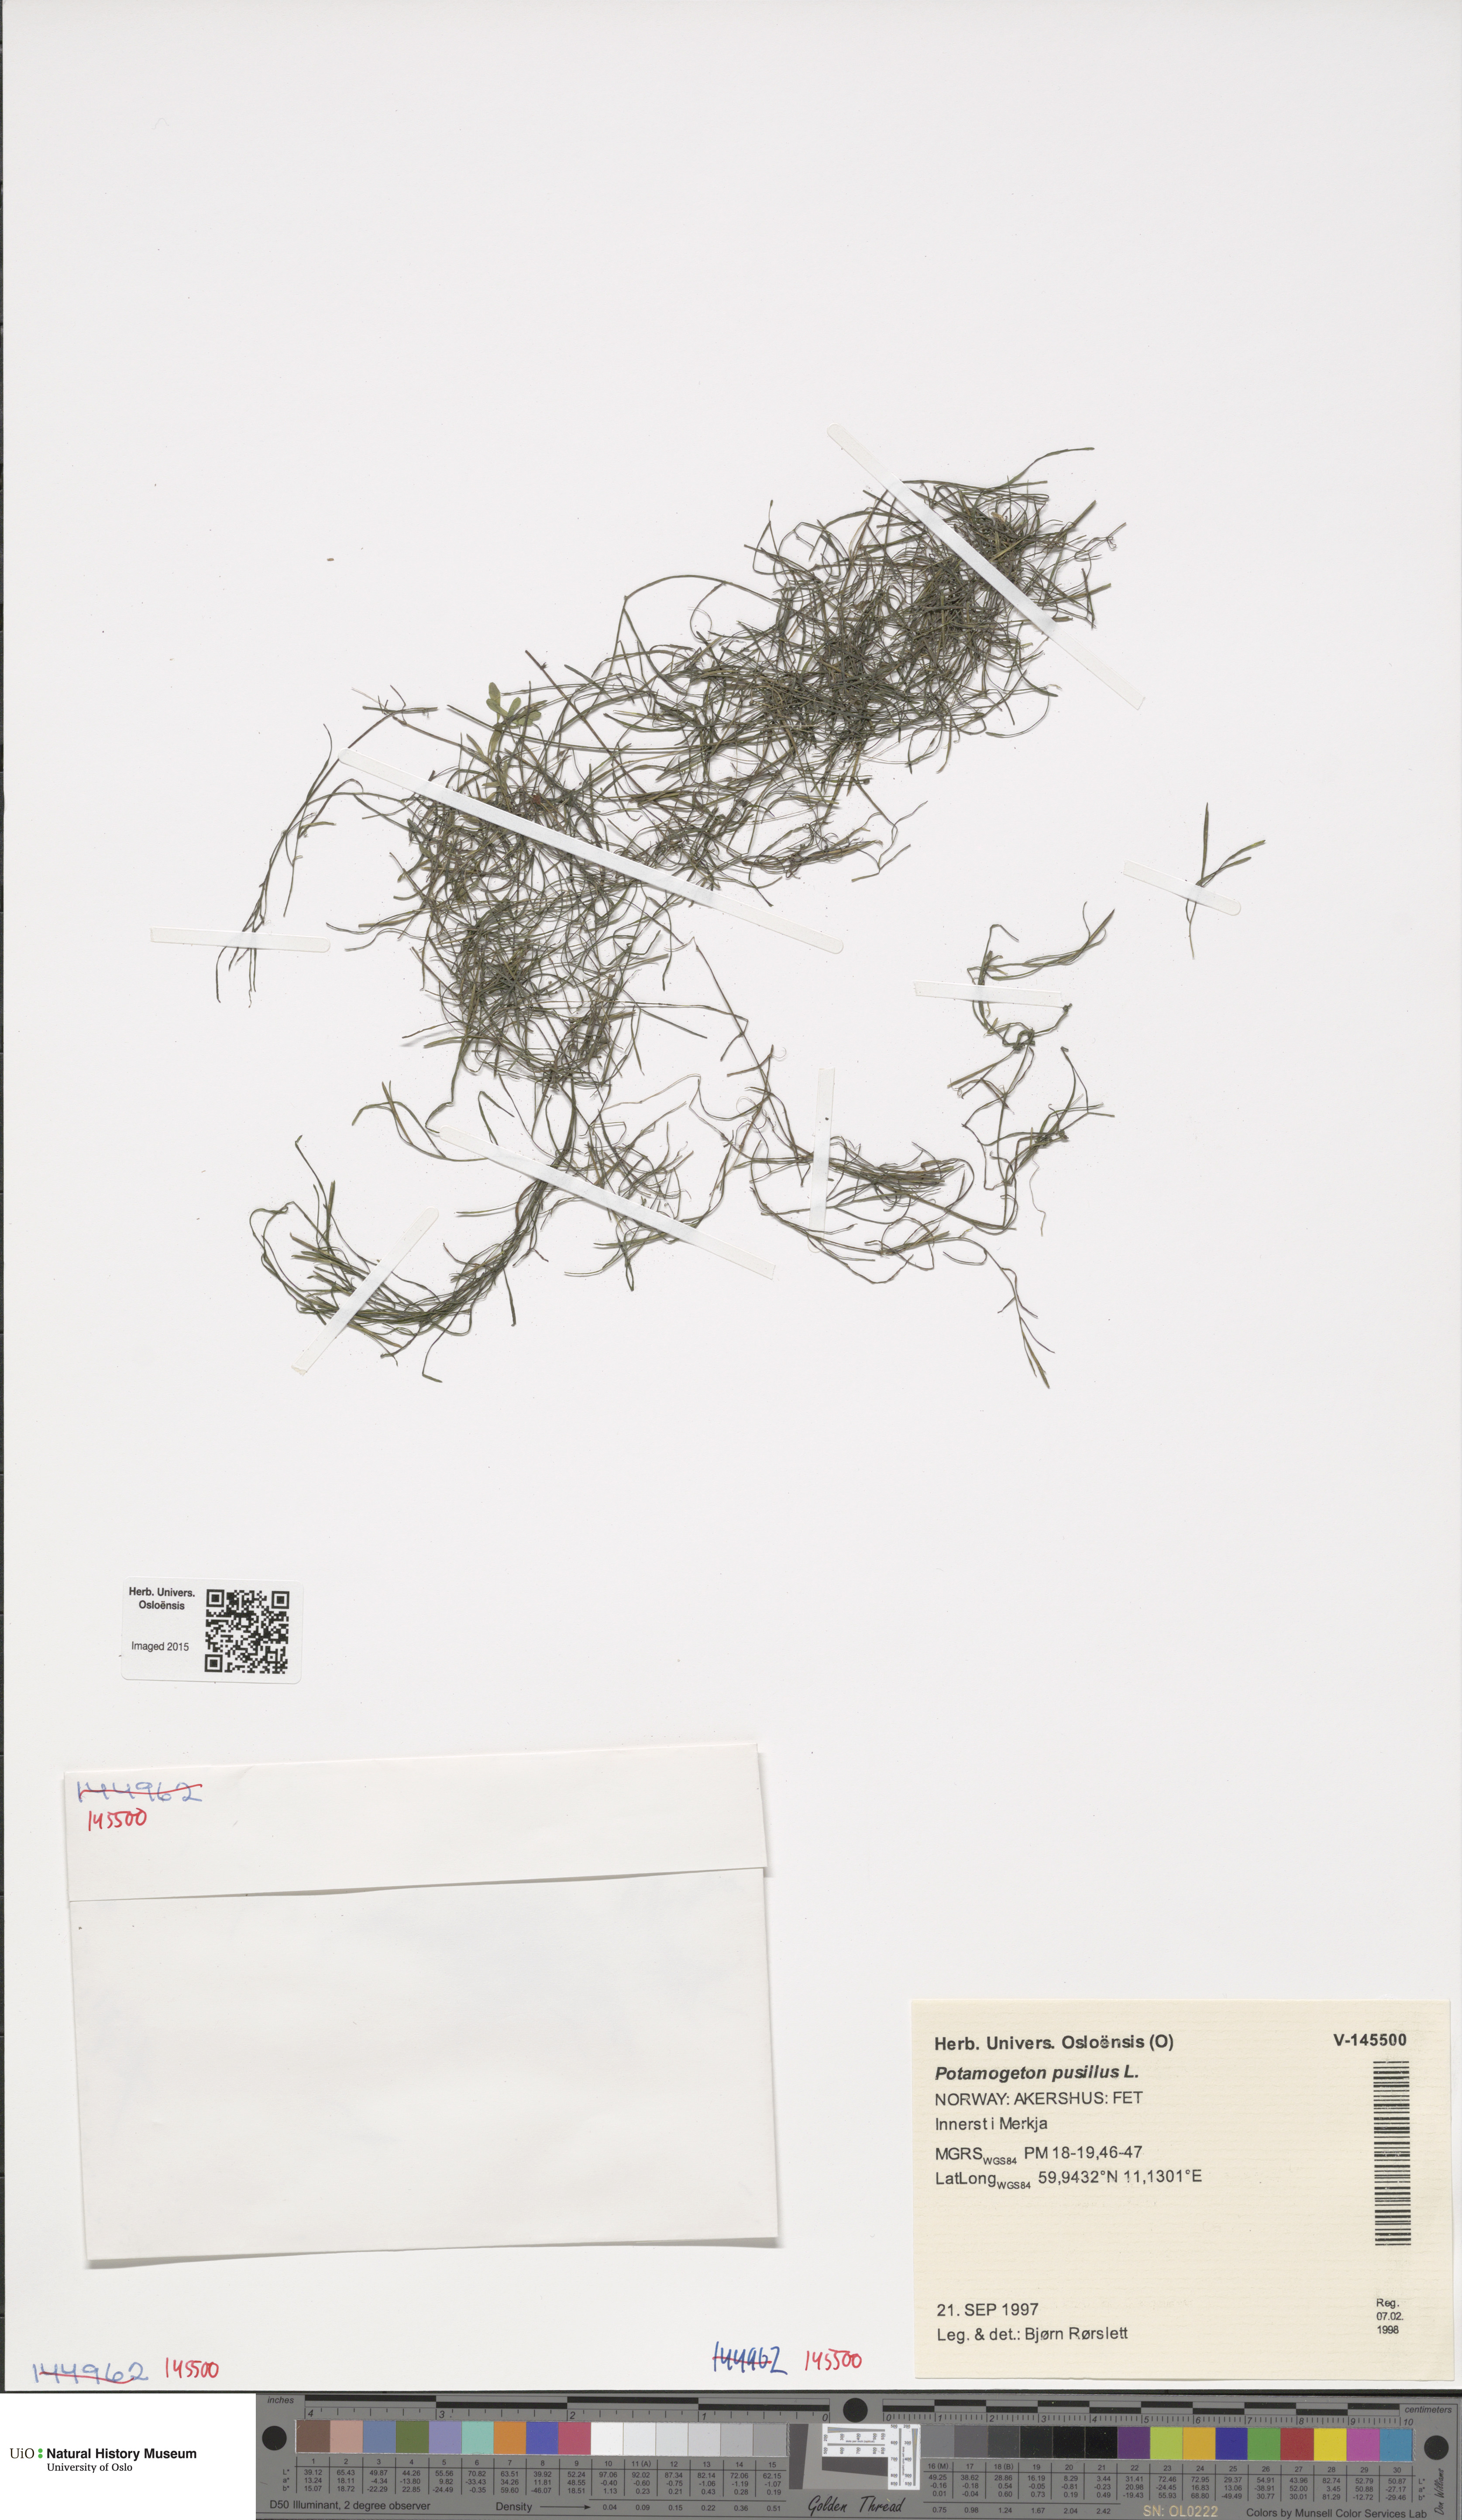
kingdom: Plantae
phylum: Tracheophyta
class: Liliopsida
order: Alismatales
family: Potamogetonaceae
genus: Potamogeton
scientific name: Potamogeton pusillus
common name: Lesser pondweed
